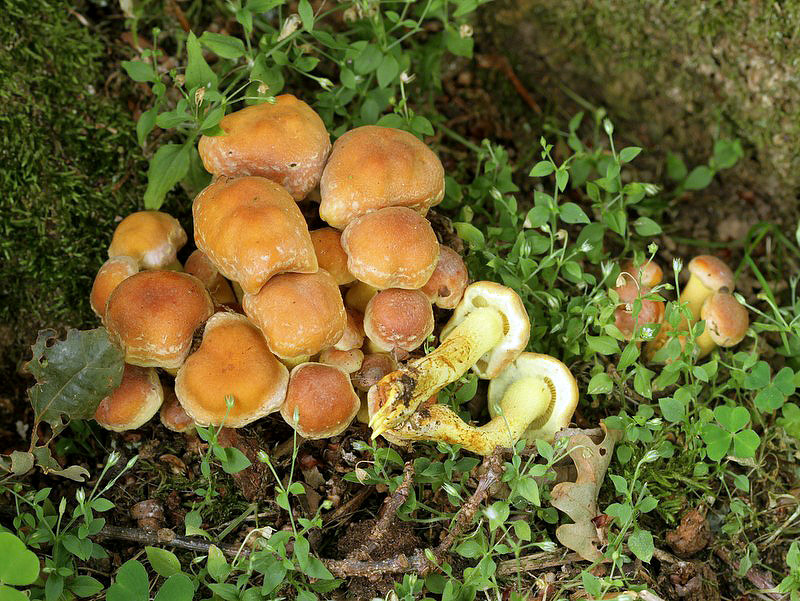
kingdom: Fungi
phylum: Basidiomycota
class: Agaricomycetes
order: Agaricales
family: Strophariaceae
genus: Hypholoma
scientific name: Hypholoma fasciculare
